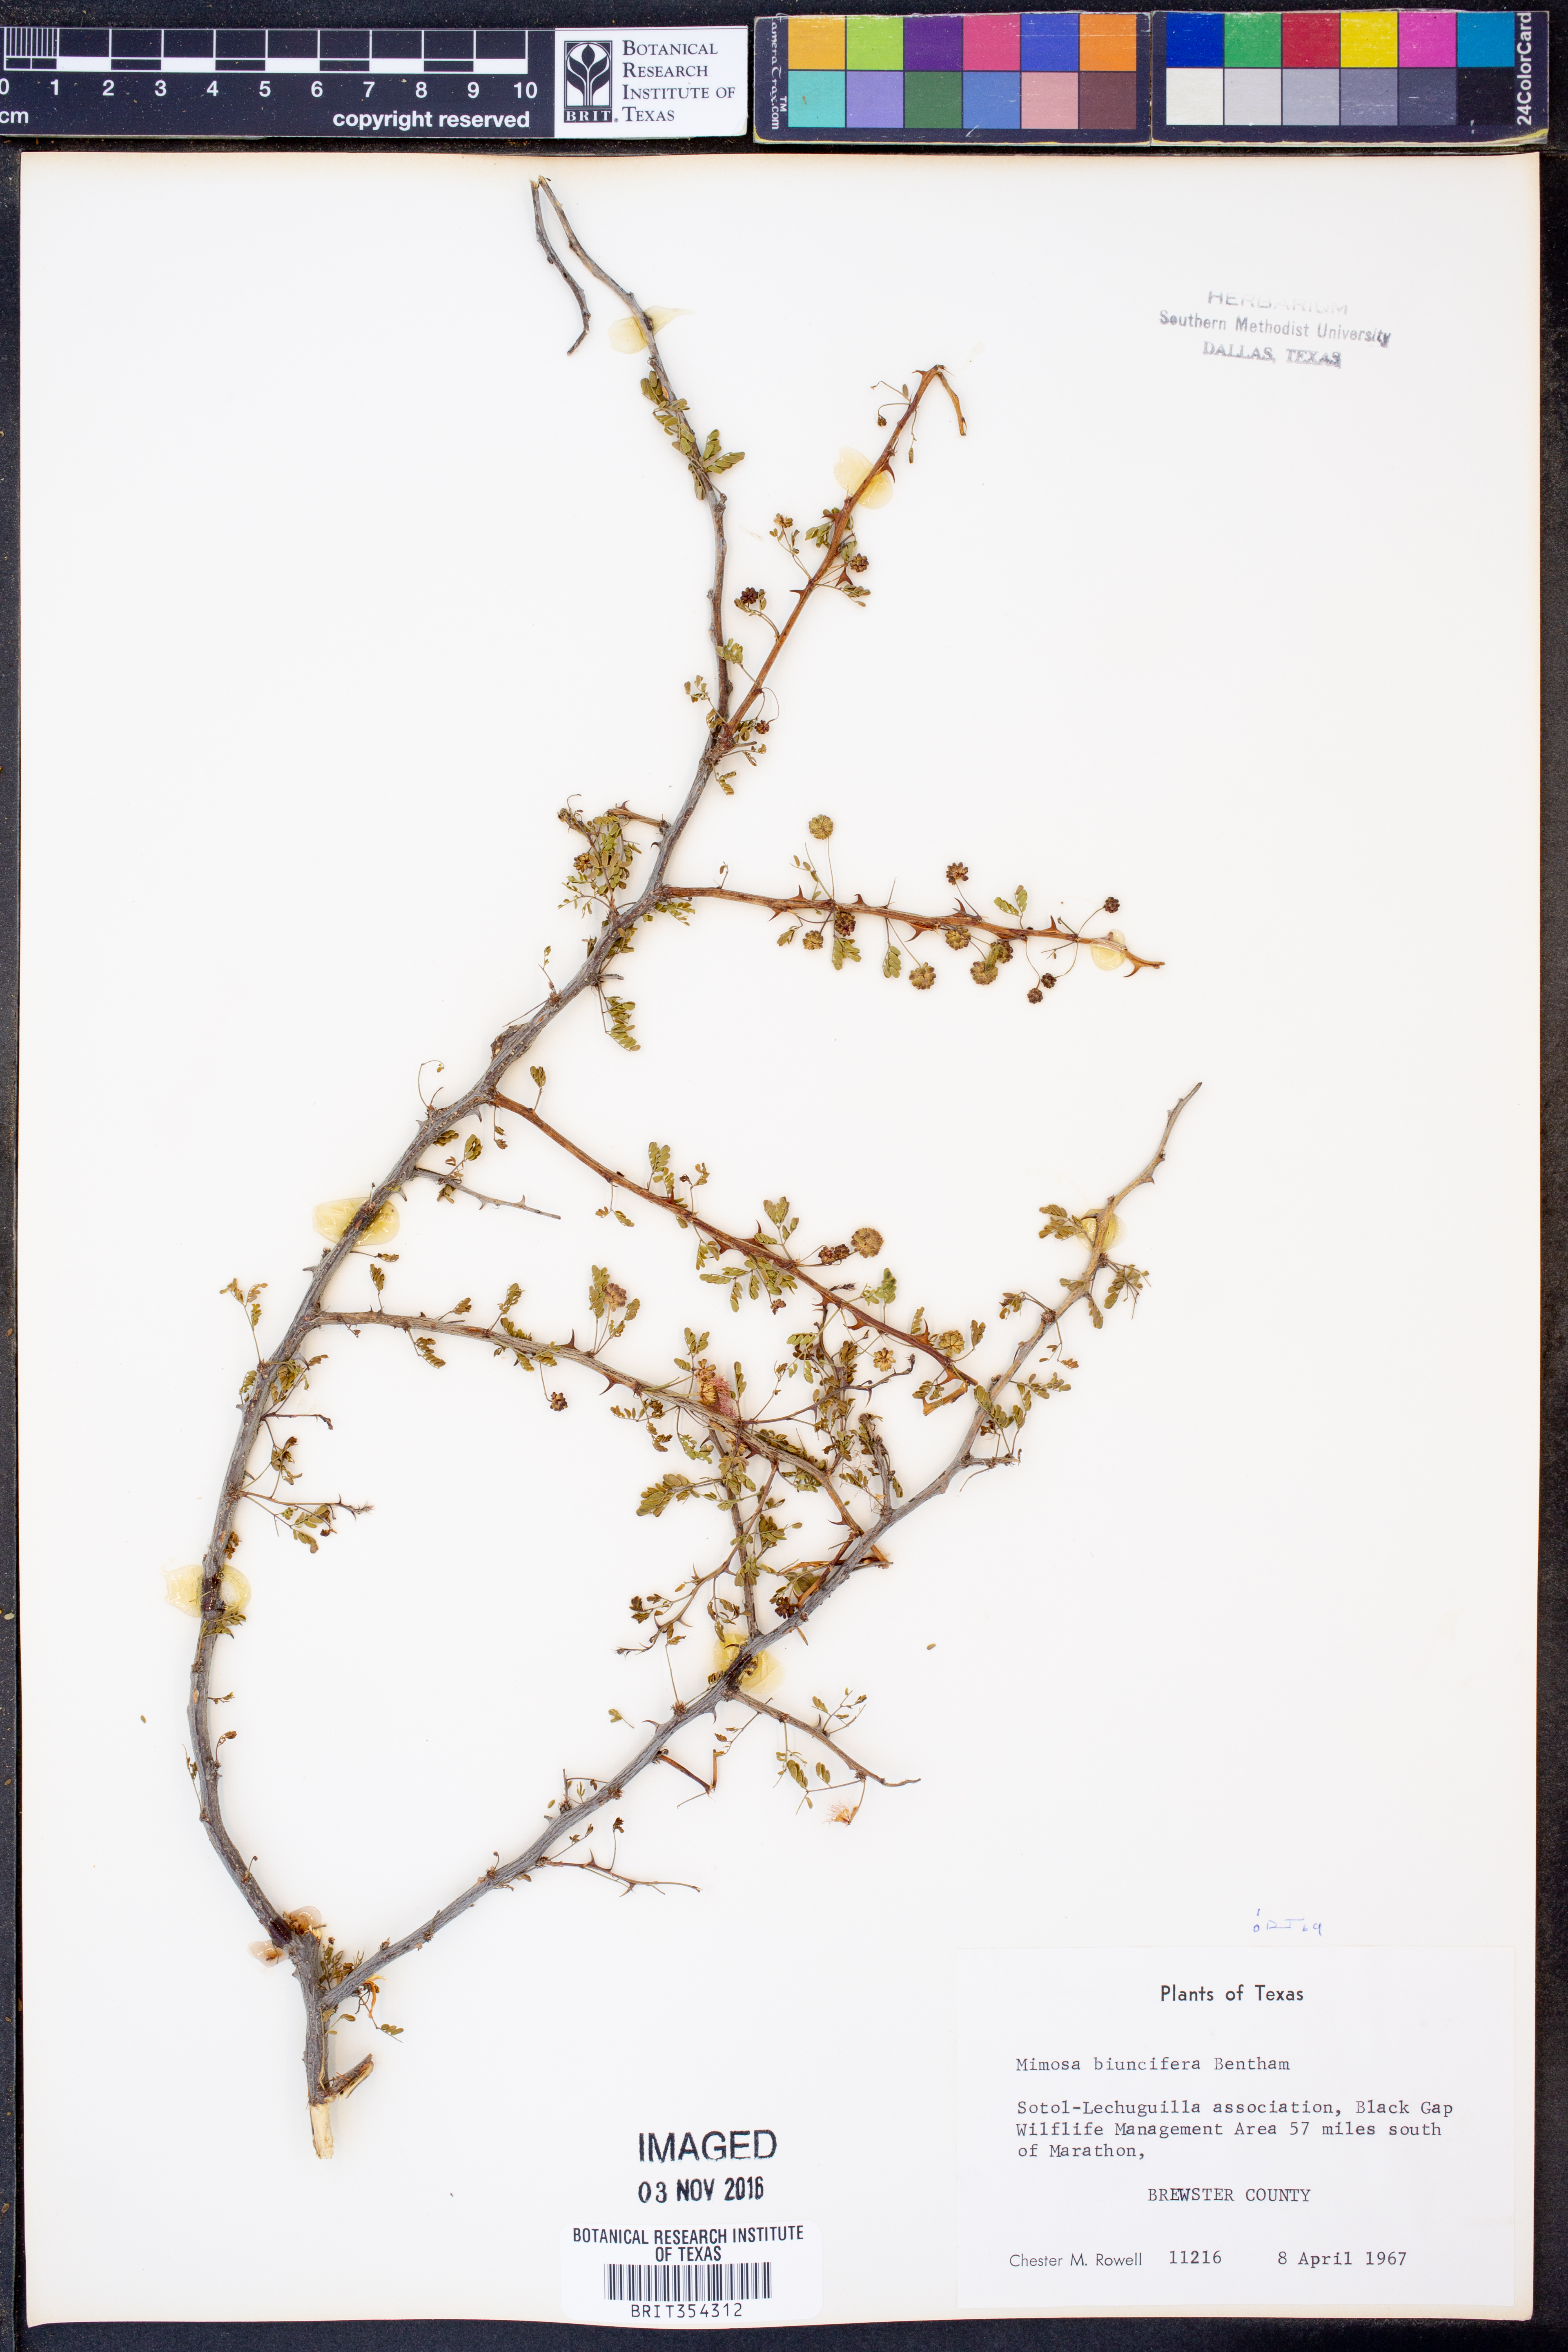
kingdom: Plantae
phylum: Tracheophyta
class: Magnoliopsida
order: Fabales
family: Fabaceae
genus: Mimosa
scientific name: Mimosa biuncifera
